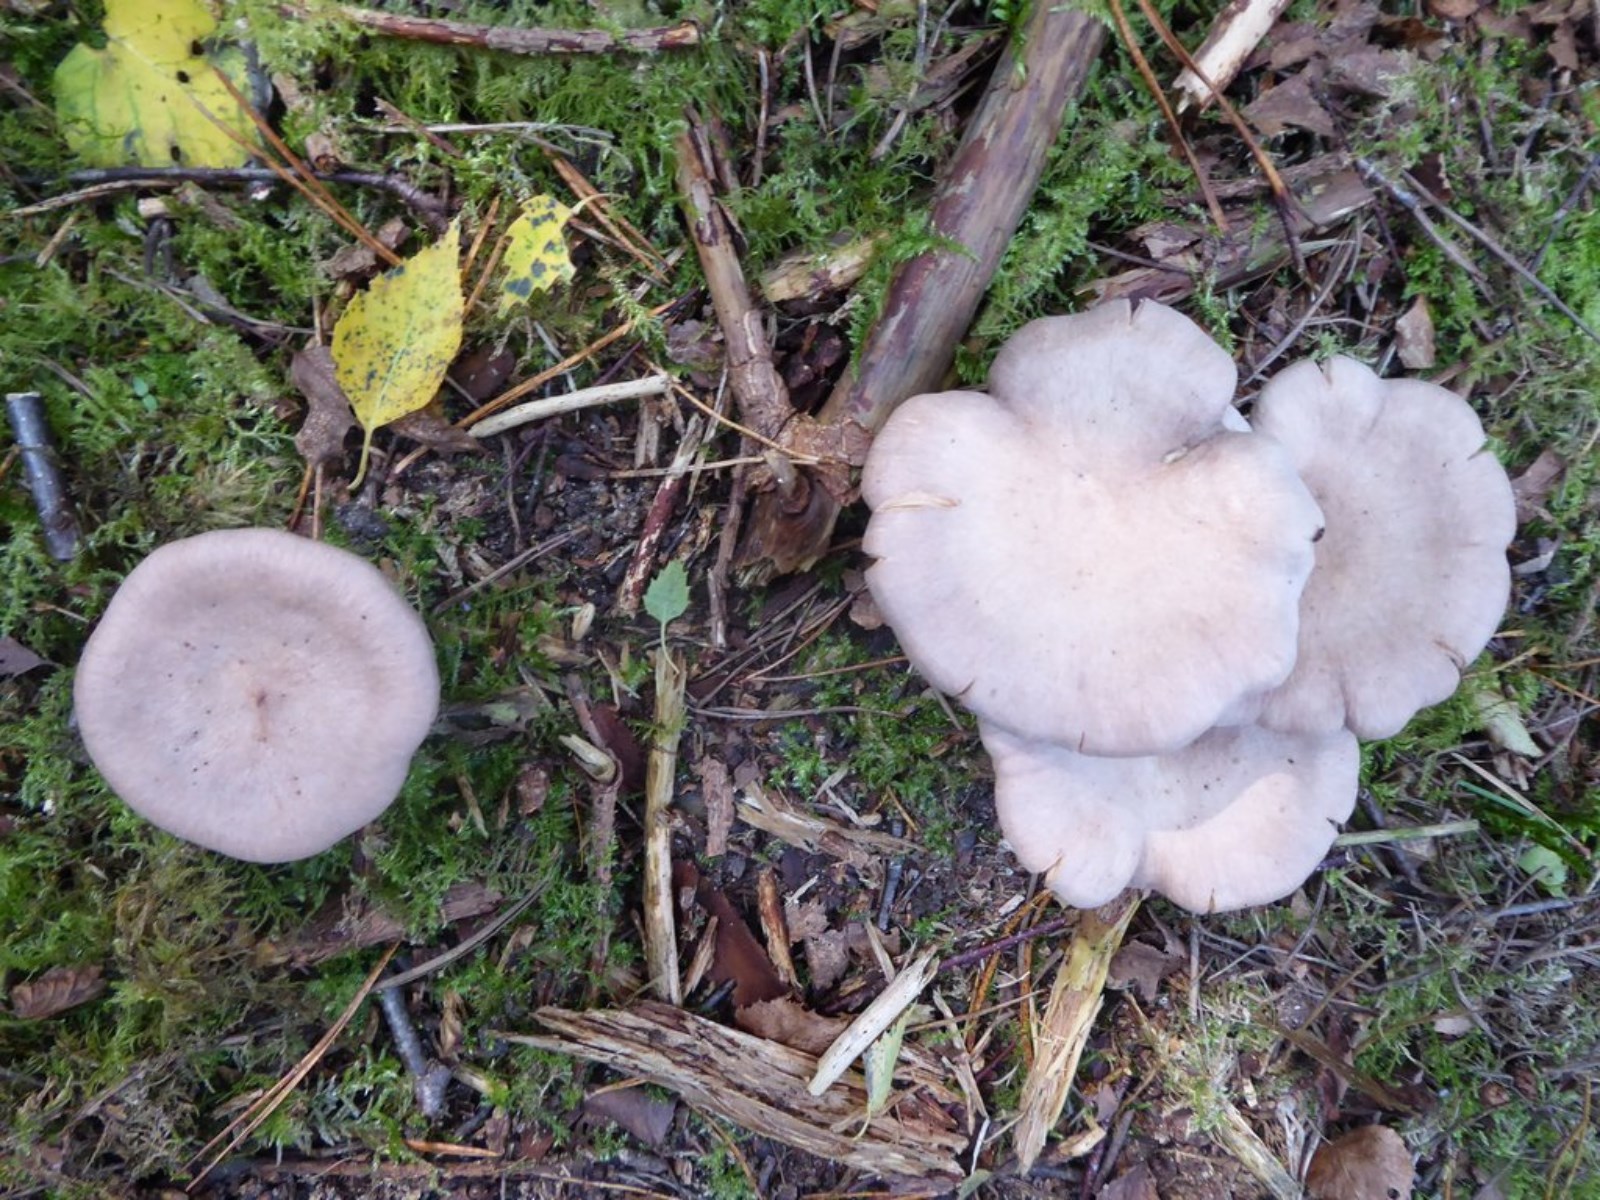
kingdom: Fungi
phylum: Basidiomycota
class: Agaricomycetes
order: Russulales
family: Russulaceae
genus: Lactarius
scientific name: Lactarius
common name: mælkehat
